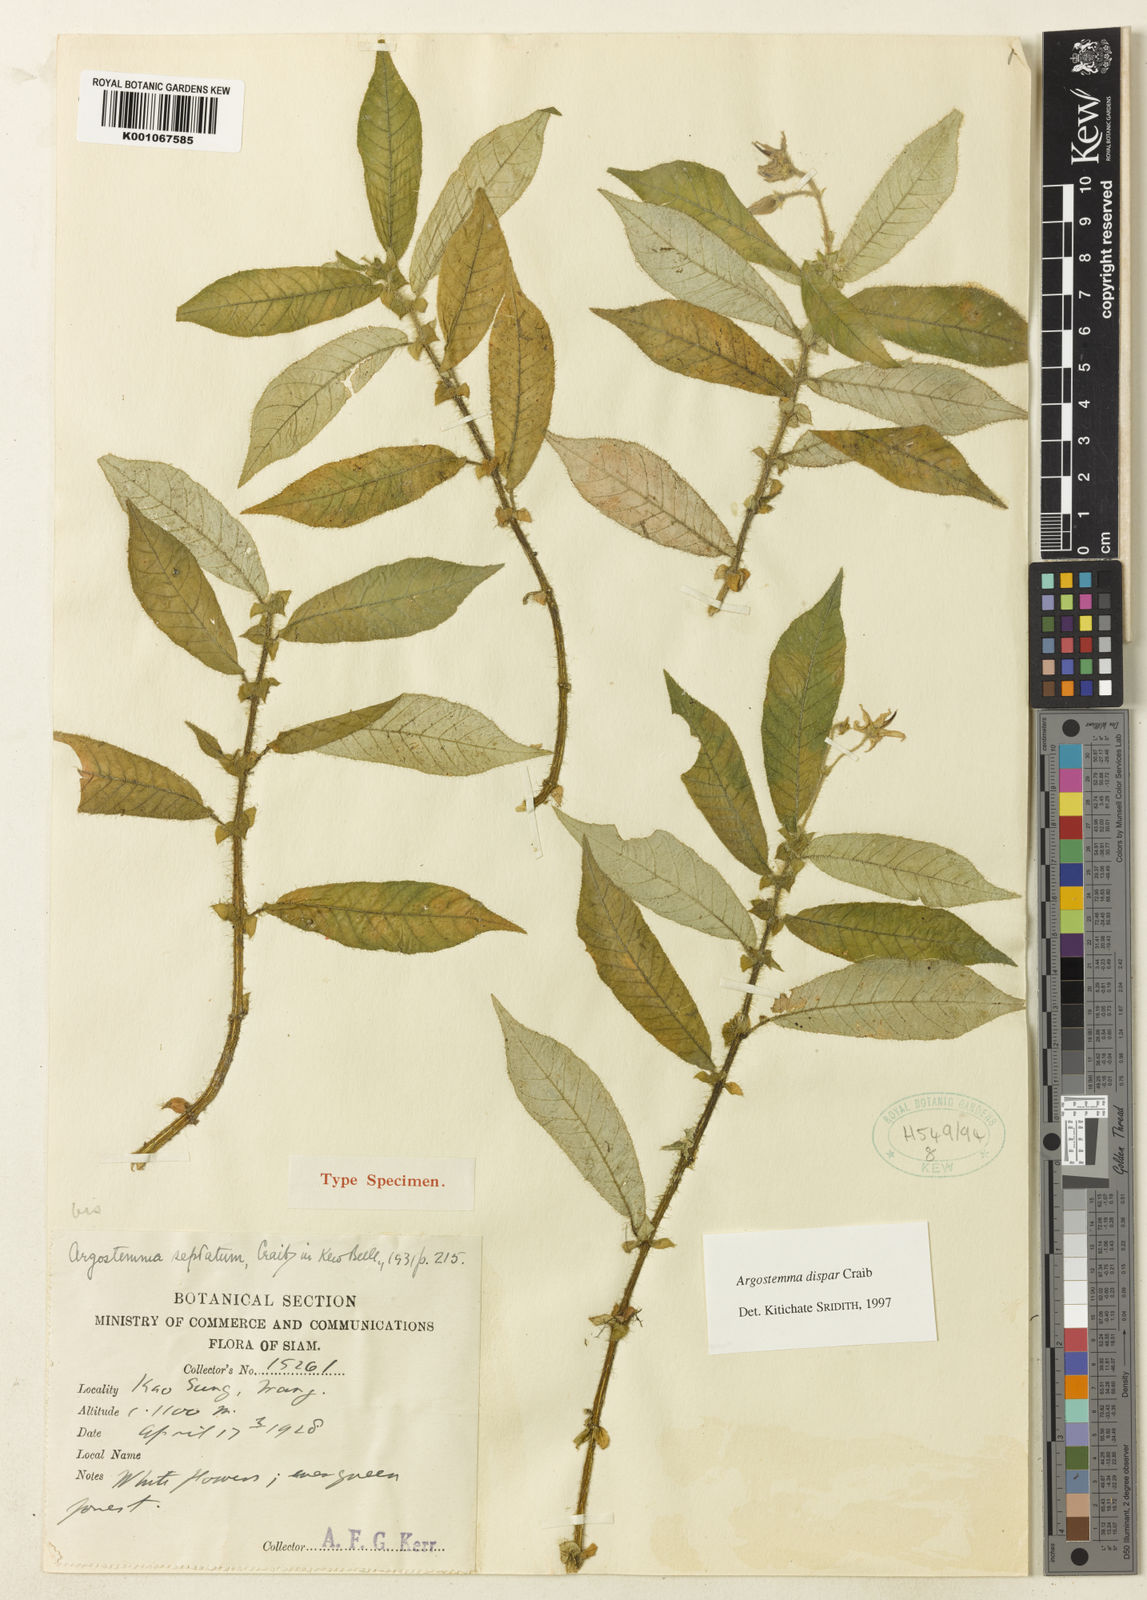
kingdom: Plantae
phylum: Tracheophyta
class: Magnoliopsida
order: Gentianales
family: Rubiaceae
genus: Argostemma
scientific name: Argostemma dispar
